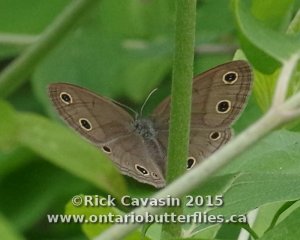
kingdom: Animalia
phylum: Arthropoda
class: Insecta
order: Lepidoptera
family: Nymphalidae
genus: Euptychia
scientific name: Euptychia cymela
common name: Little Wood Satyr
